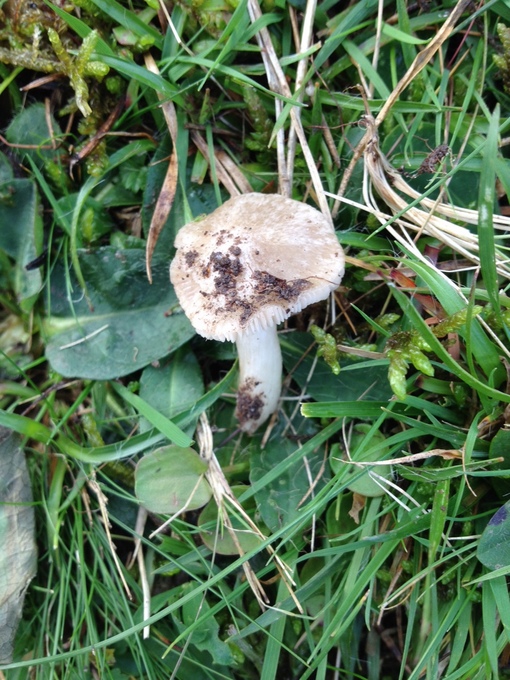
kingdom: Fungi
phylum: Basidiomycota
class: Agaricomycetes
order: Agaricales
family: Entolomataceae
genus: Entoloma
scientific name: Entoloma prunuloides
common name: mel-rødblad
